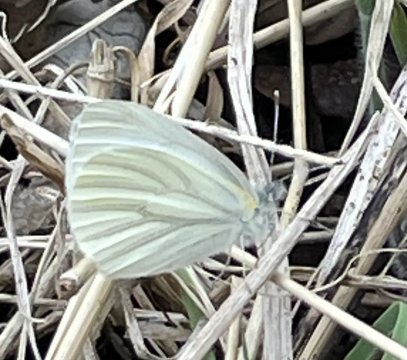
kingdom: Animalia
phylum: Arthropoda
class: Insecta
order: Lepidoptera
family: Pieridae
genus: Pieris
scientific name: Pieris oleracea
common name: Mustard White
